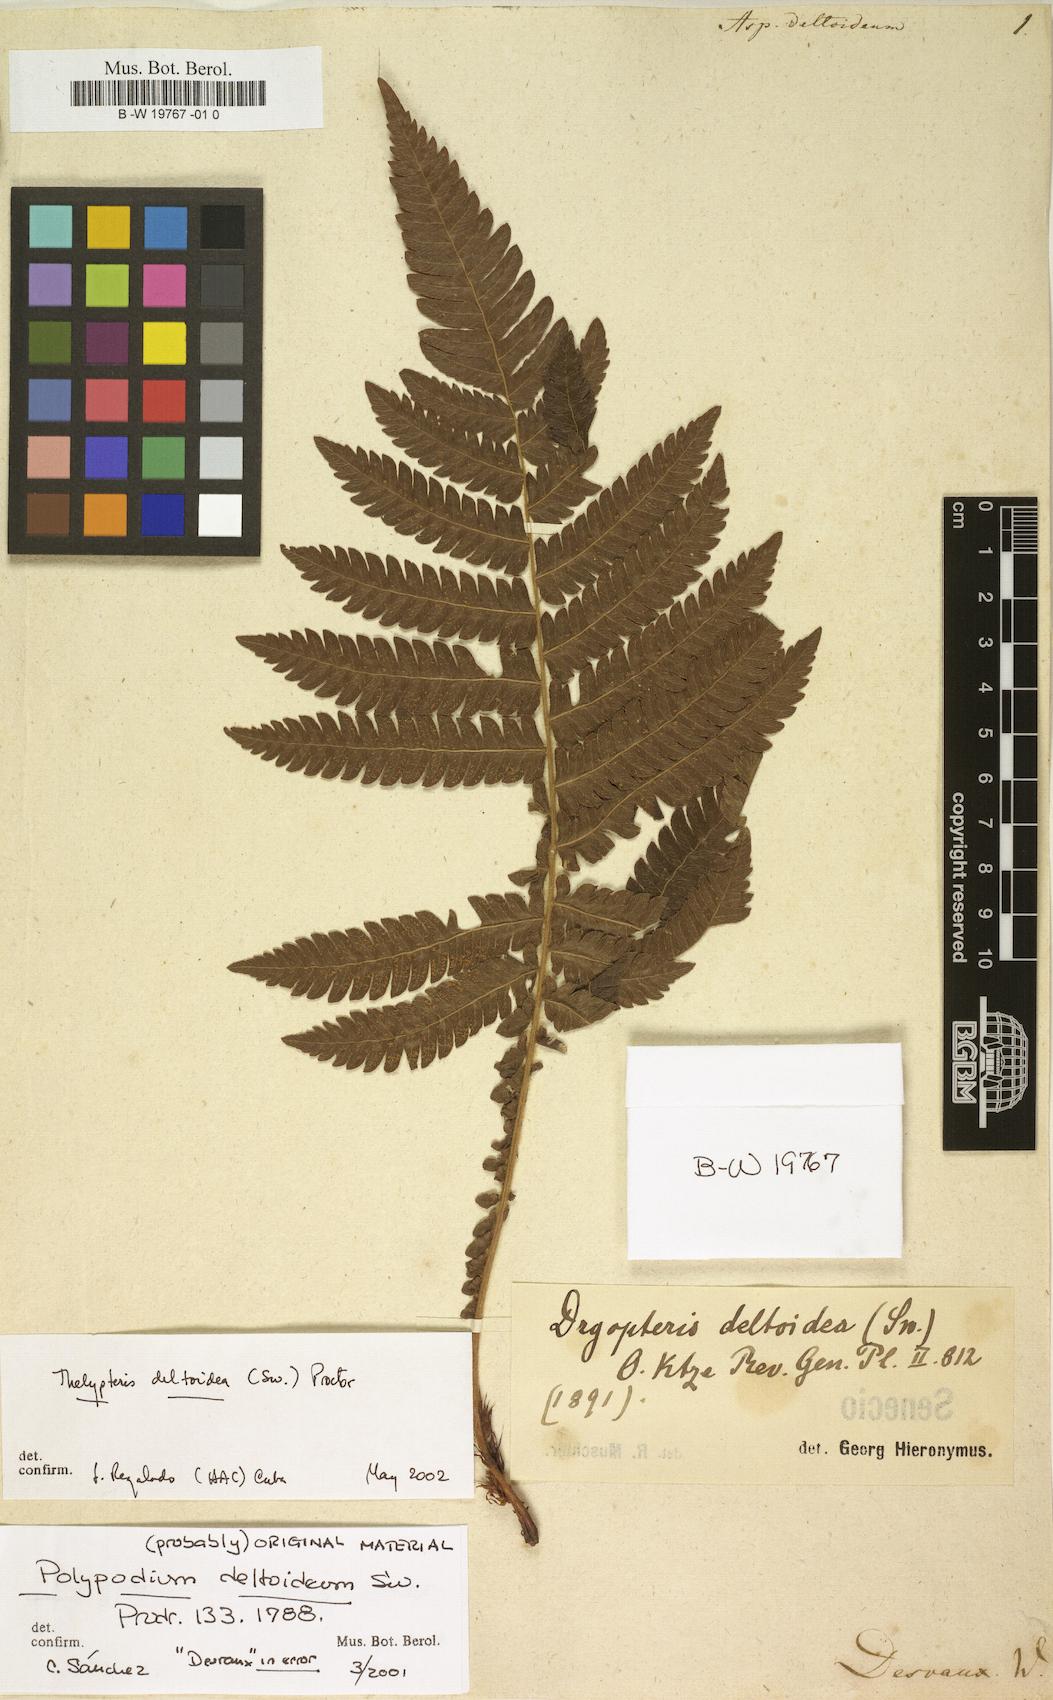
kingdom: Plantae
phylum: Tracheophyta
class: Polypodiopsida
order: Polypodiales
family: Thelypteridaceae
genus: Steiropteris
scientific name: Steiropteris deltoidea
